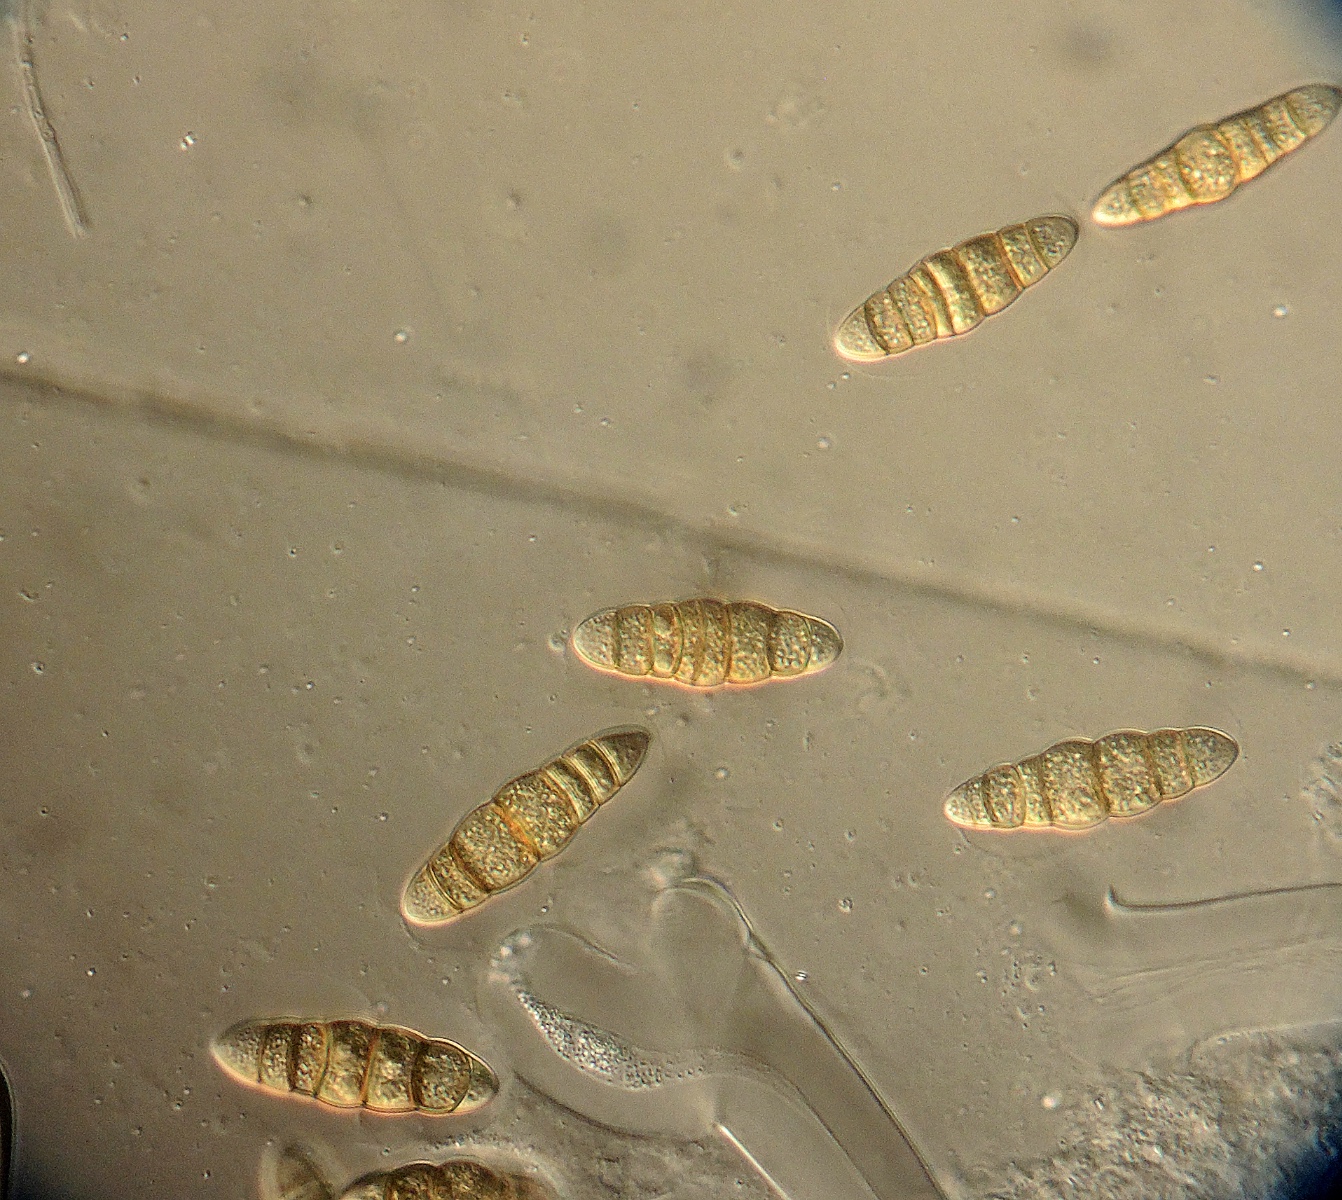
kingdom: Fungi
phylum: Ascomycota
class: Dothideomycetes
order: Pleosporales
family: Phaeosphaeriaceae
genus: Amarenographium
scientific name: Amarenographium metableticum
